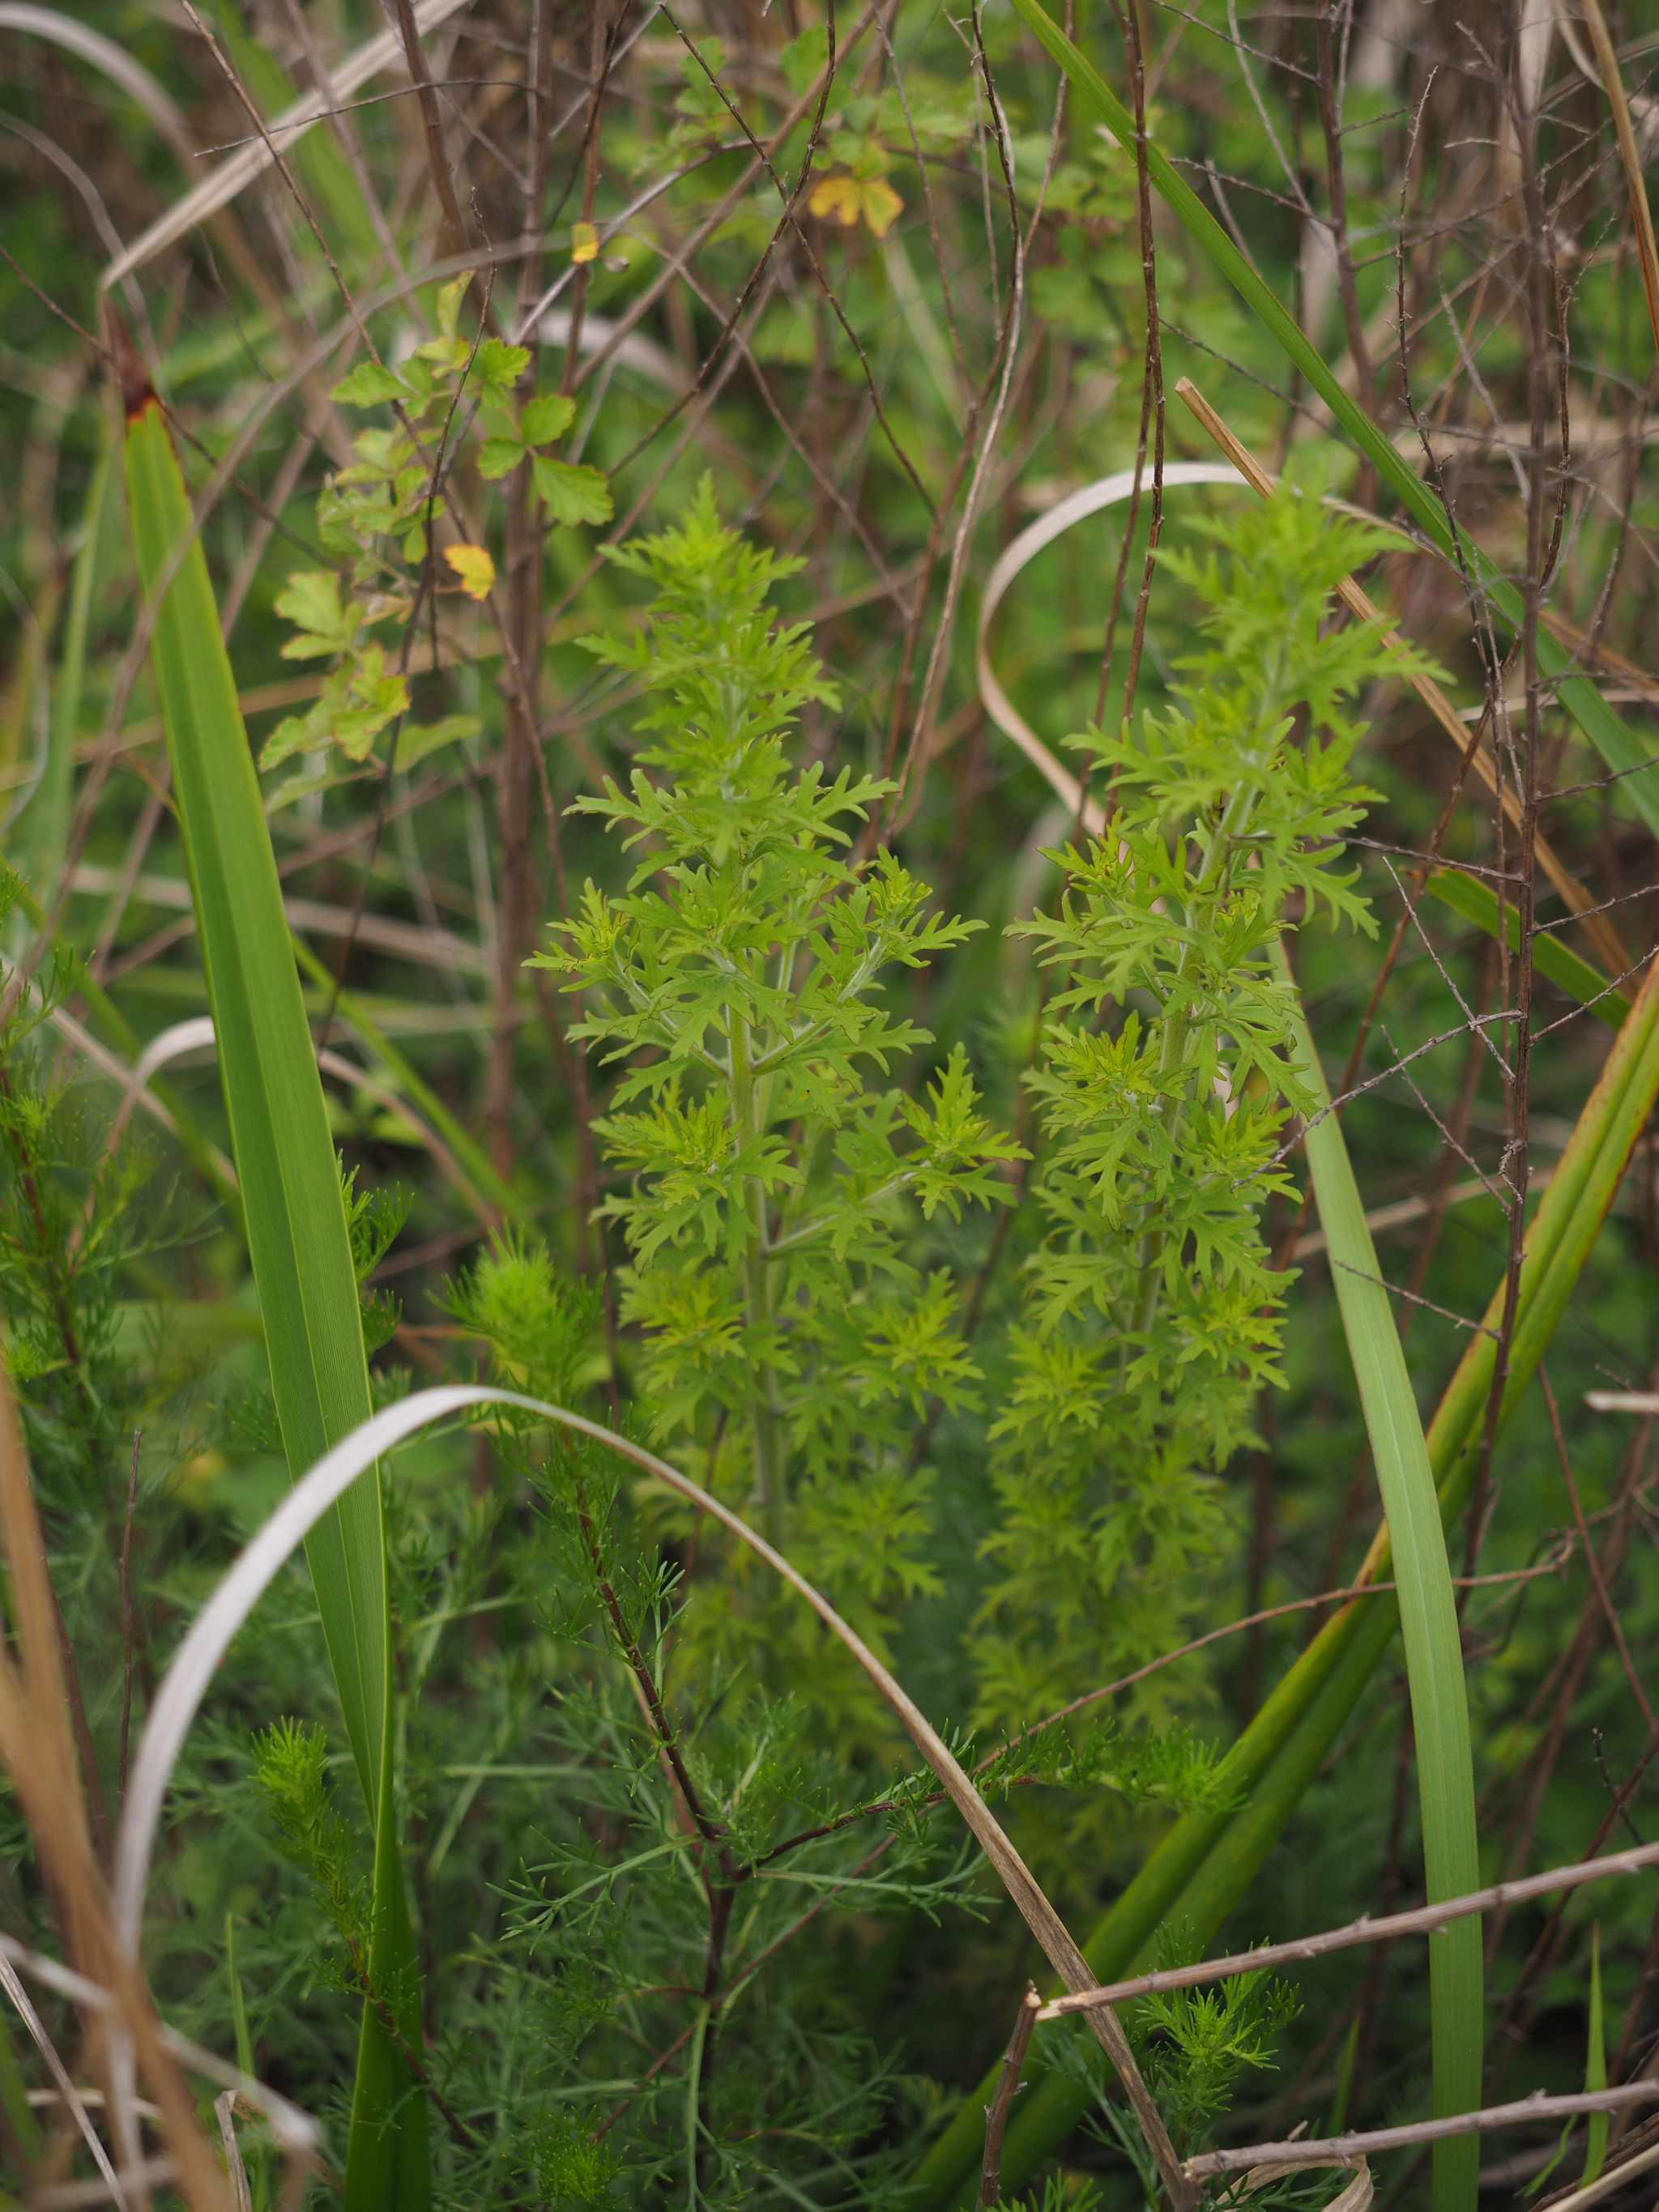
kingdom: Plantae
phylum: Tracheophyta
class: Magnoliopsida
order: Lamiales
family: Orobanchaceae
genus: Siphonostegia
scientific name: Siphonostegia chinensis
